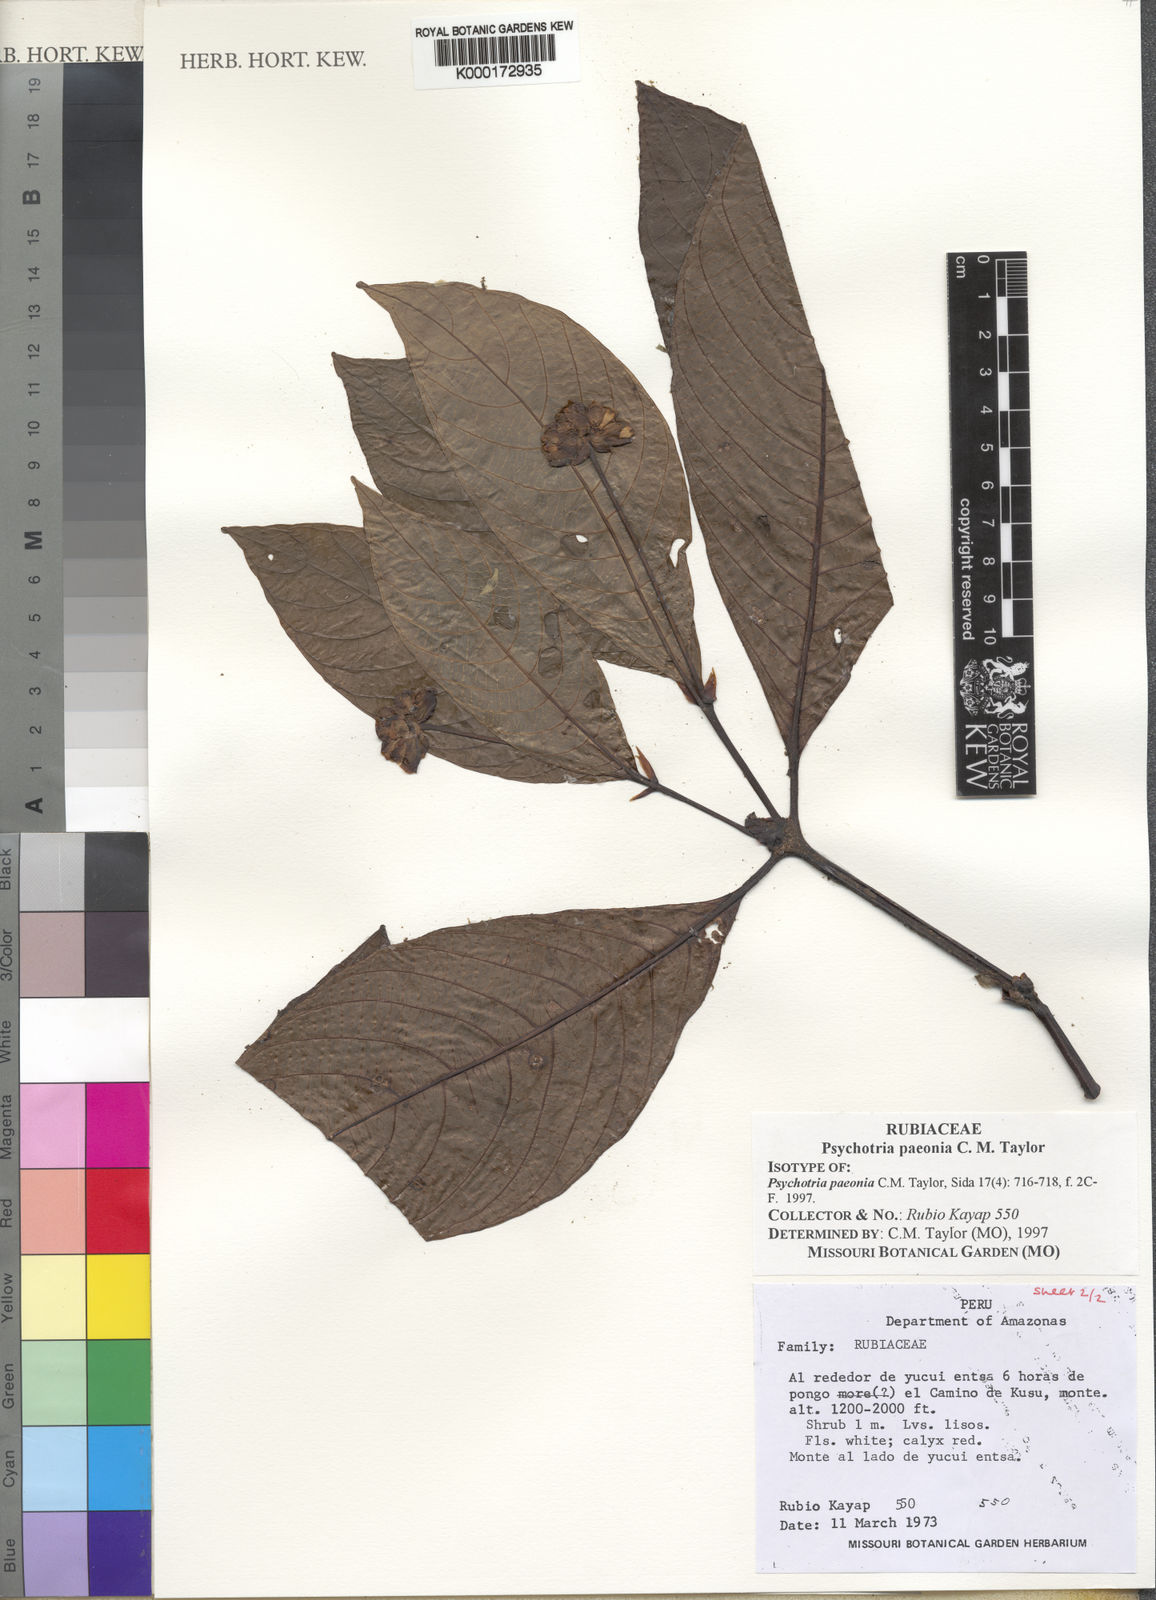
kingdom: Plantae
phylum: Tracheophyta
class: Magnoliopsida
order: Gentianales
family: Rubiaceae
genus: Psychotria
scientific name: Psychotria paeonia
